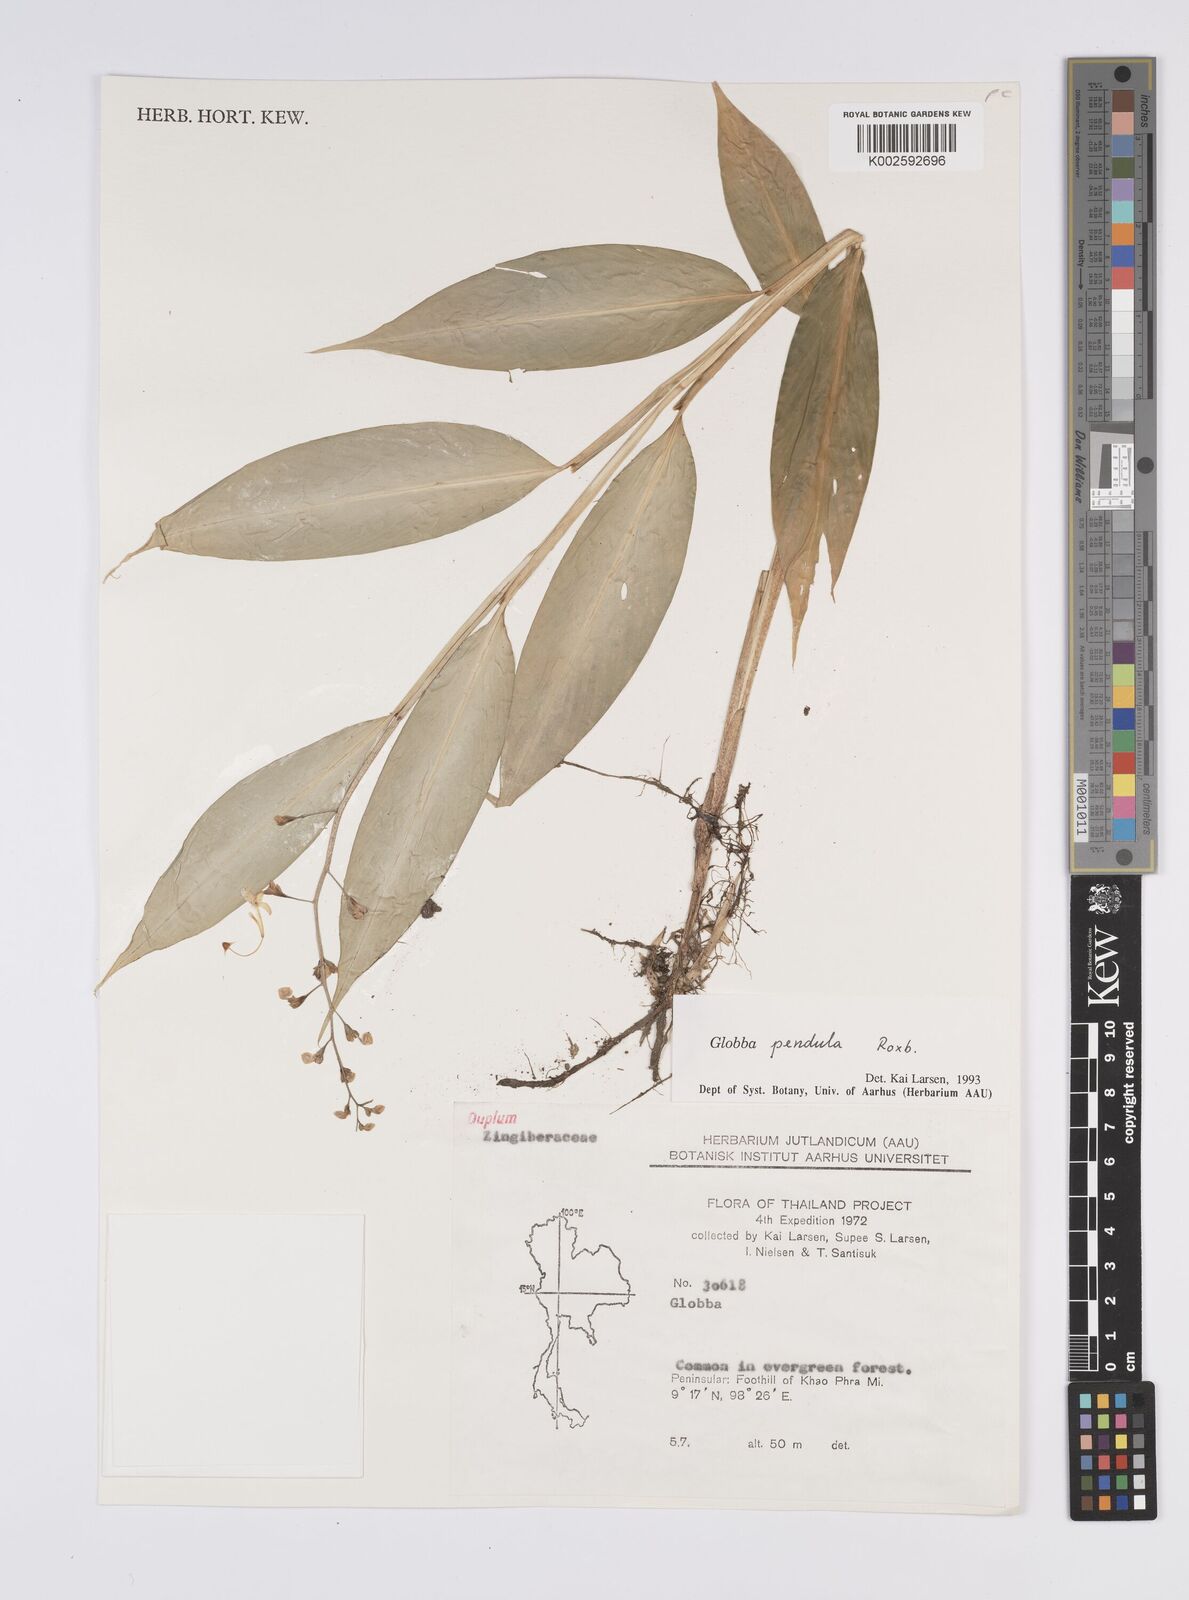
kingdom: Plantae
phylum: Tracheophyta
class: Liliopsida
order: Zingiberales
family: Zingiberaceae
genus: Globba
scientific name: Globba pendula
